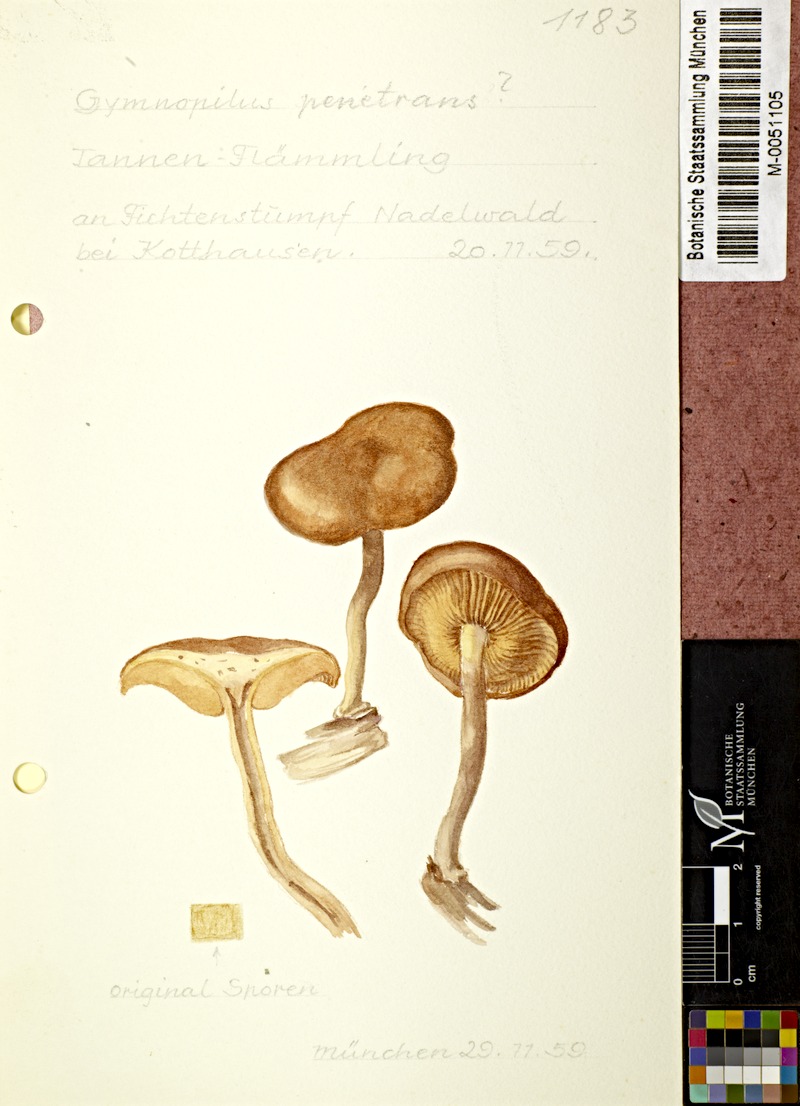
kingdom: Fungi
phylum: Basidiomycota
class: Agaricomycetes
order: Agaricales
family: Hymenogastraceae
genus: Gymnopilus
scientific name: Gymnopilus penetrans
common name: Common rustgill
